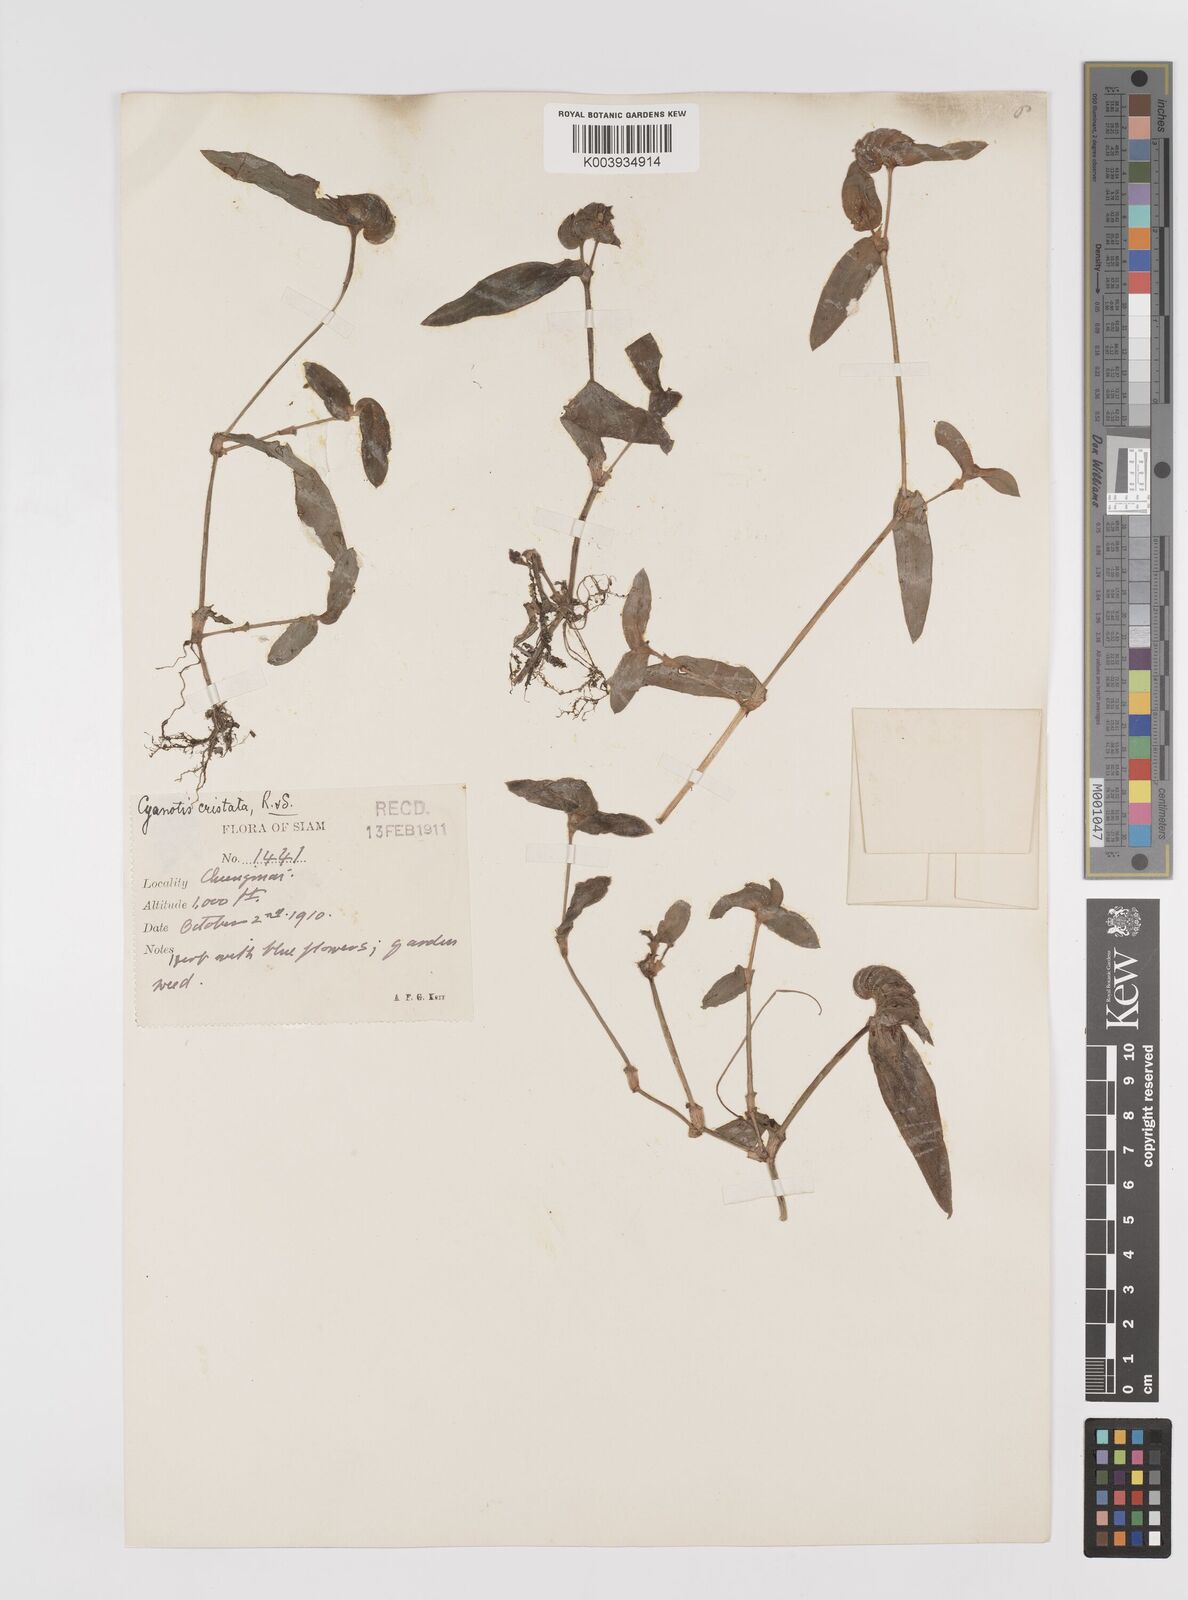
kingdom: Plantae
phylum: Tracheophyta
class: Liliopsida
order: Commelinales
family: Commelinaceae
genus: Cyanotis
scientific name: Cyanotis cristata
